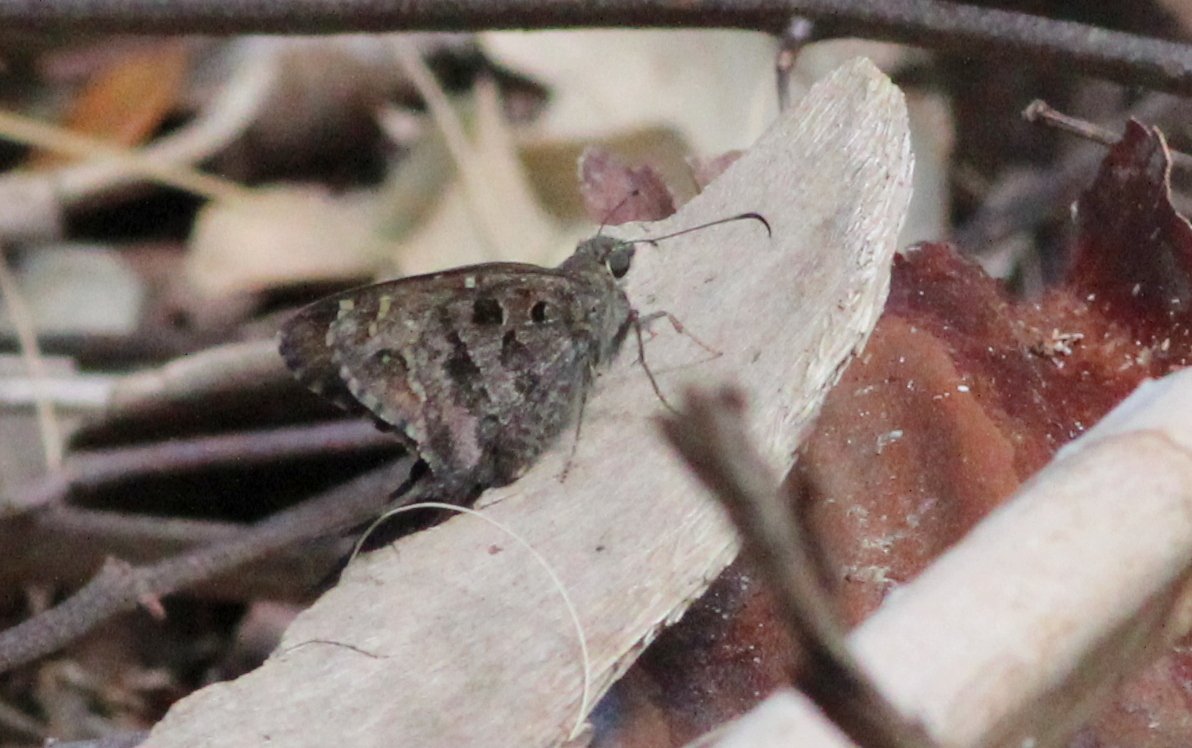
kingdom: Animalia
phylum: Arthropoda
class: Insecta
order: Lepidoptera
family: Hesperiidae
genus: Polites
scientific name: Polites vibex
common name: Whirlabout
